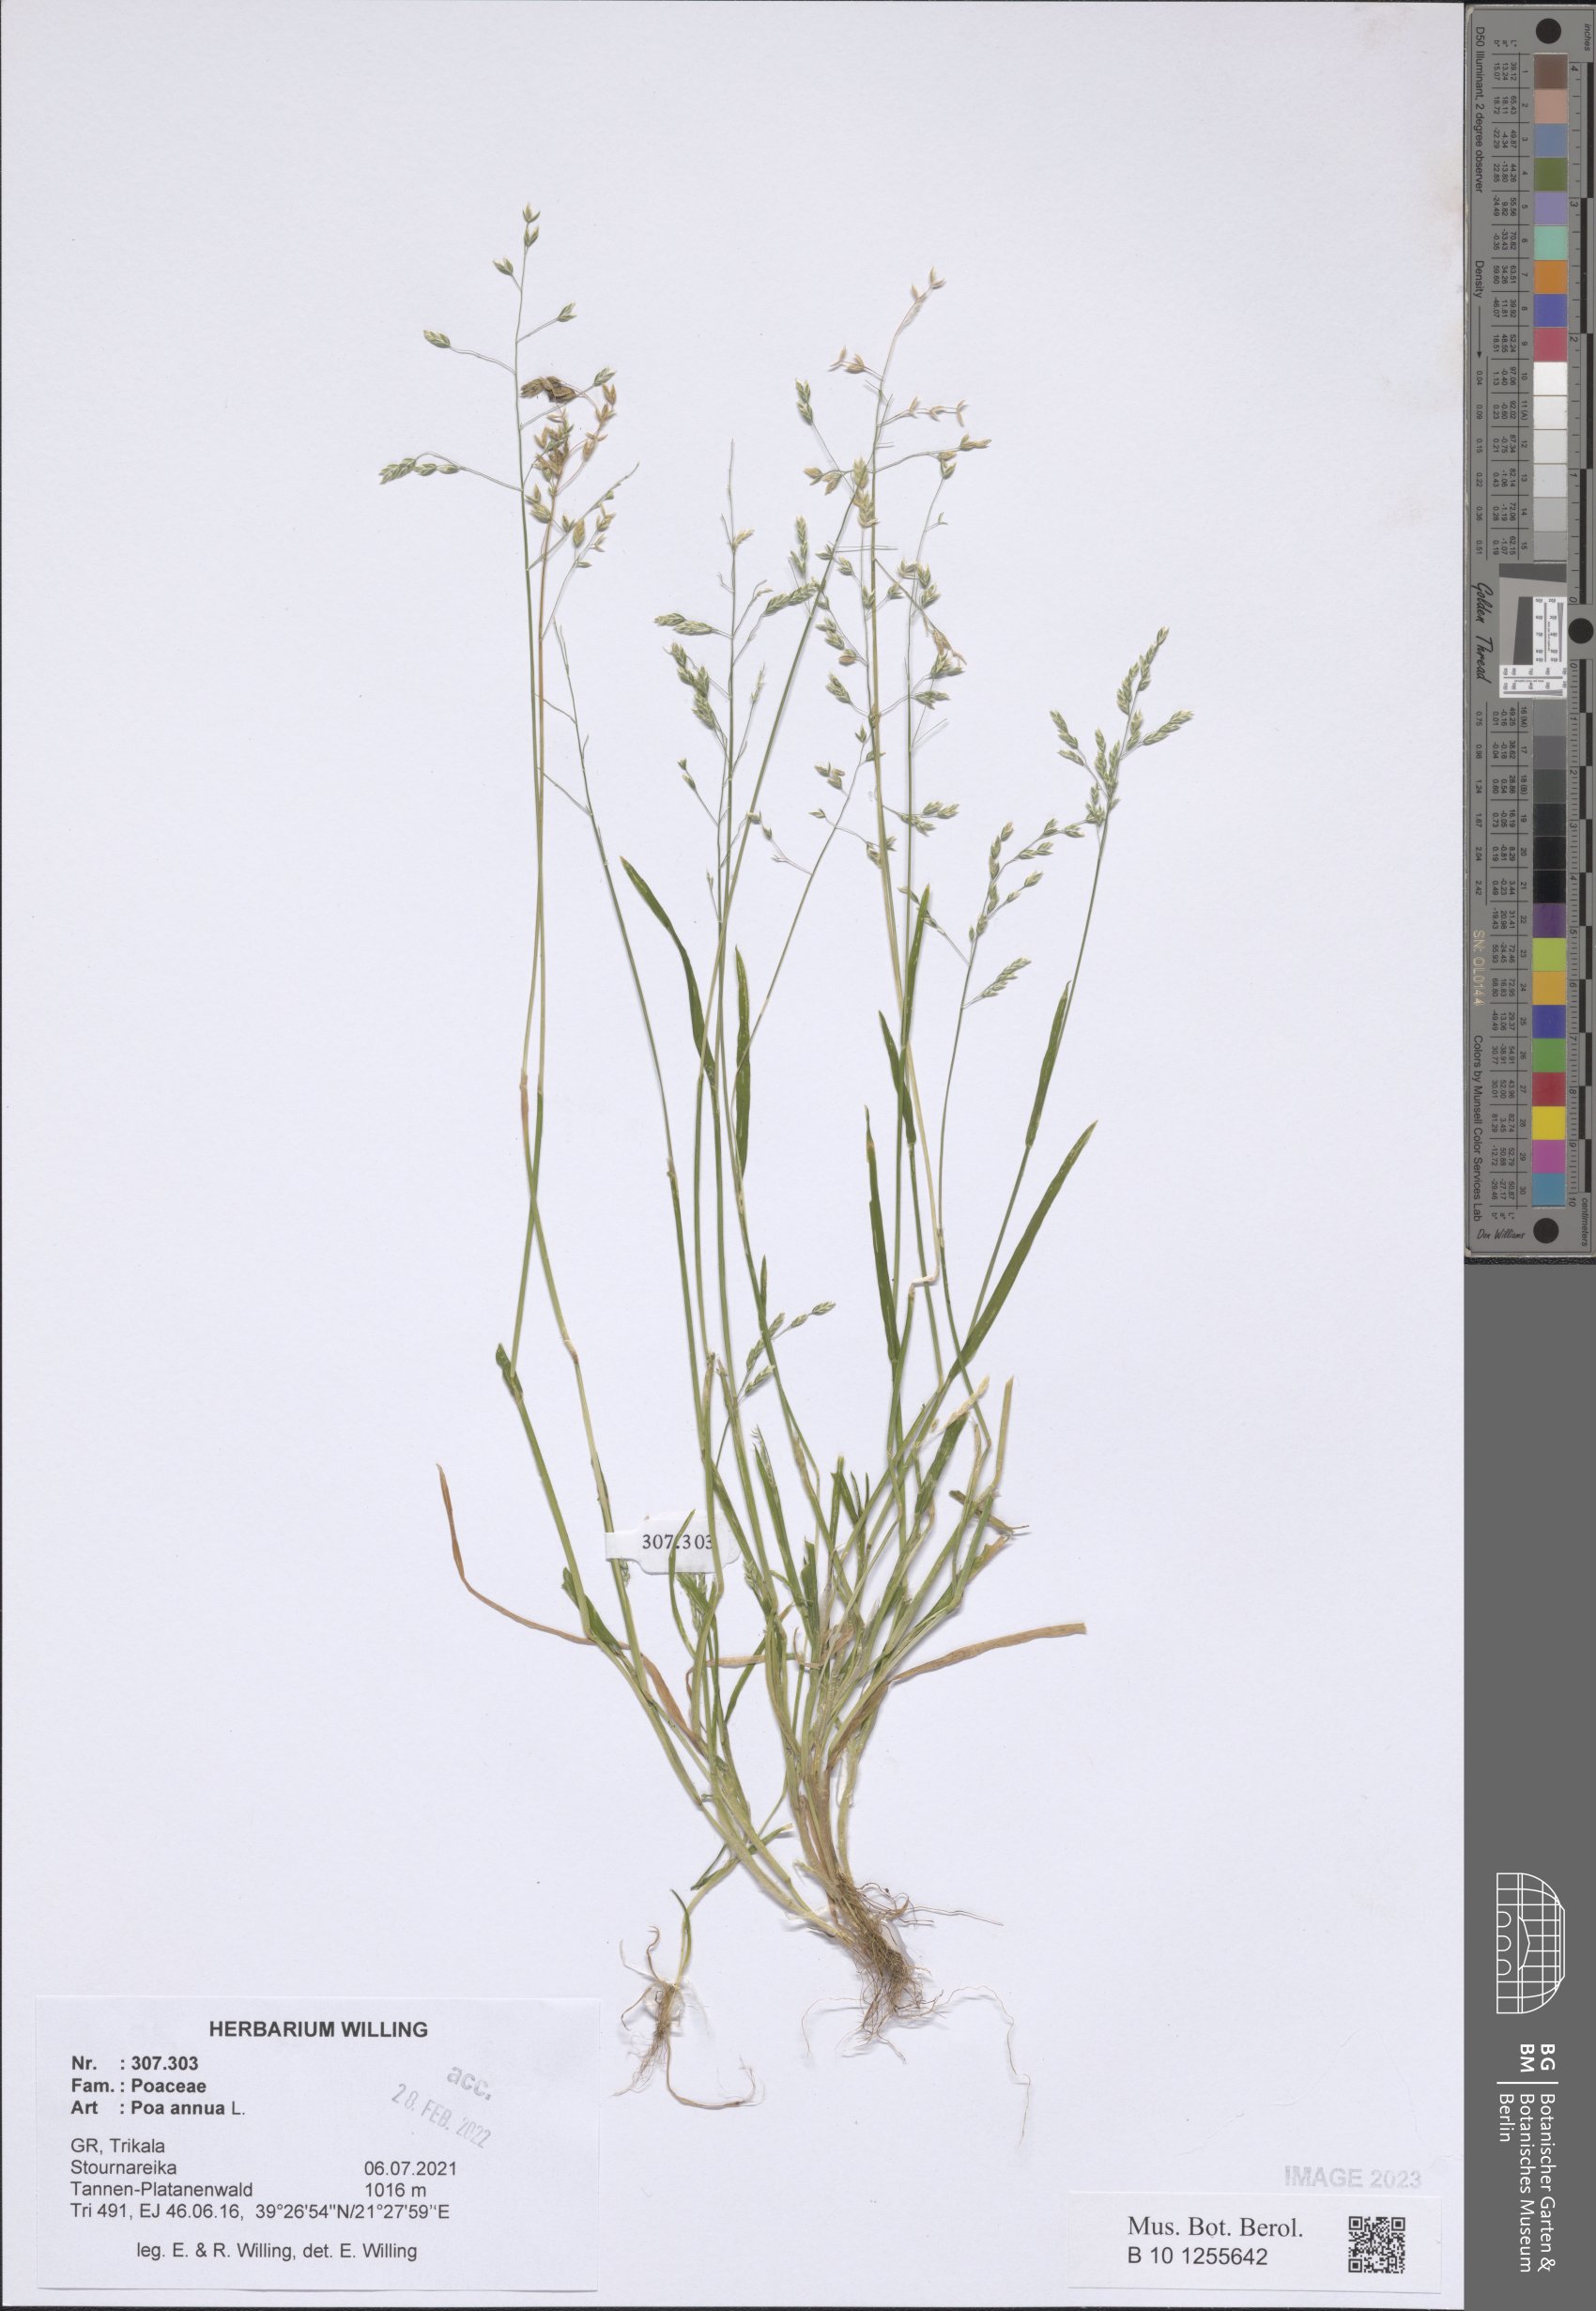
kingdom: Plantae
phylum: Tracheophyta
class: Liliopsida
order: Poales
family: Poaceae
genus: Poa
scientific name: Poa annua
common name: Annual bluegrass
